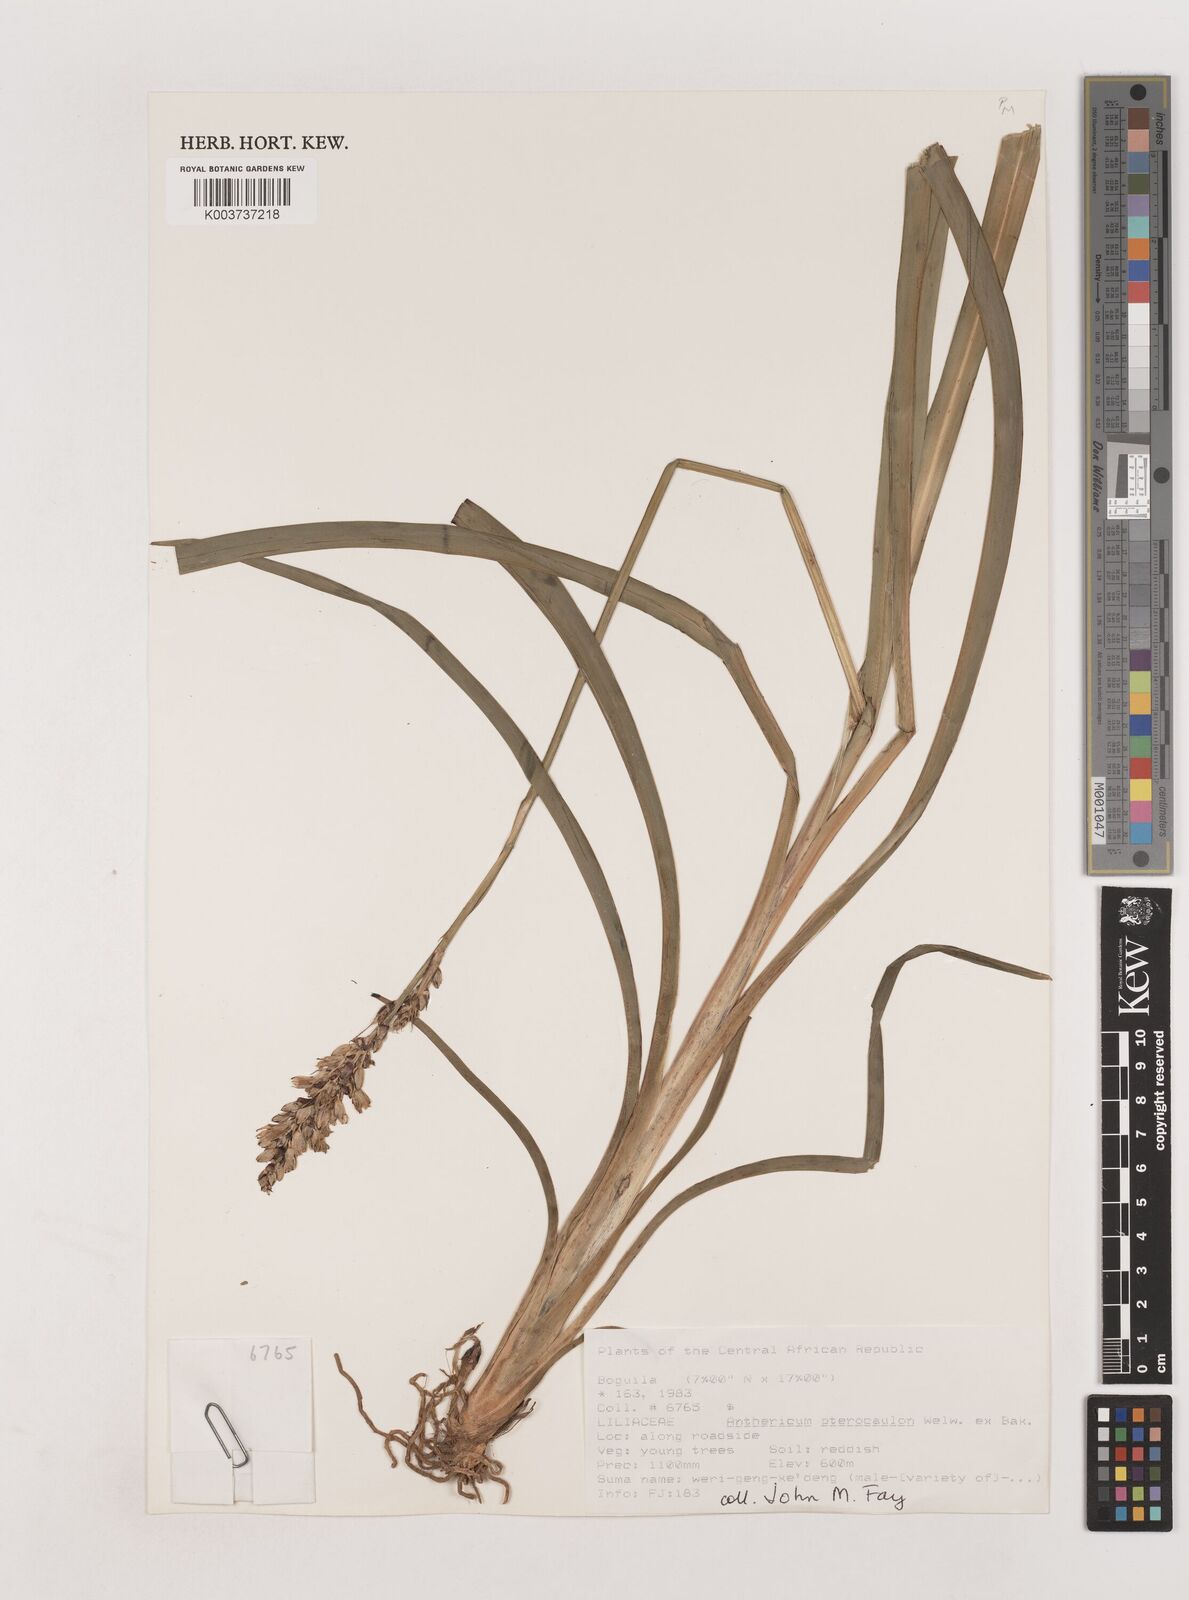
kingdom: Plantae
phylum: Tracheophyta
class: Liliopsida
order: Asparagales
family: Asparagaceae
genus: Chlorophytum
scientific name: Chlorophytum cameronii
